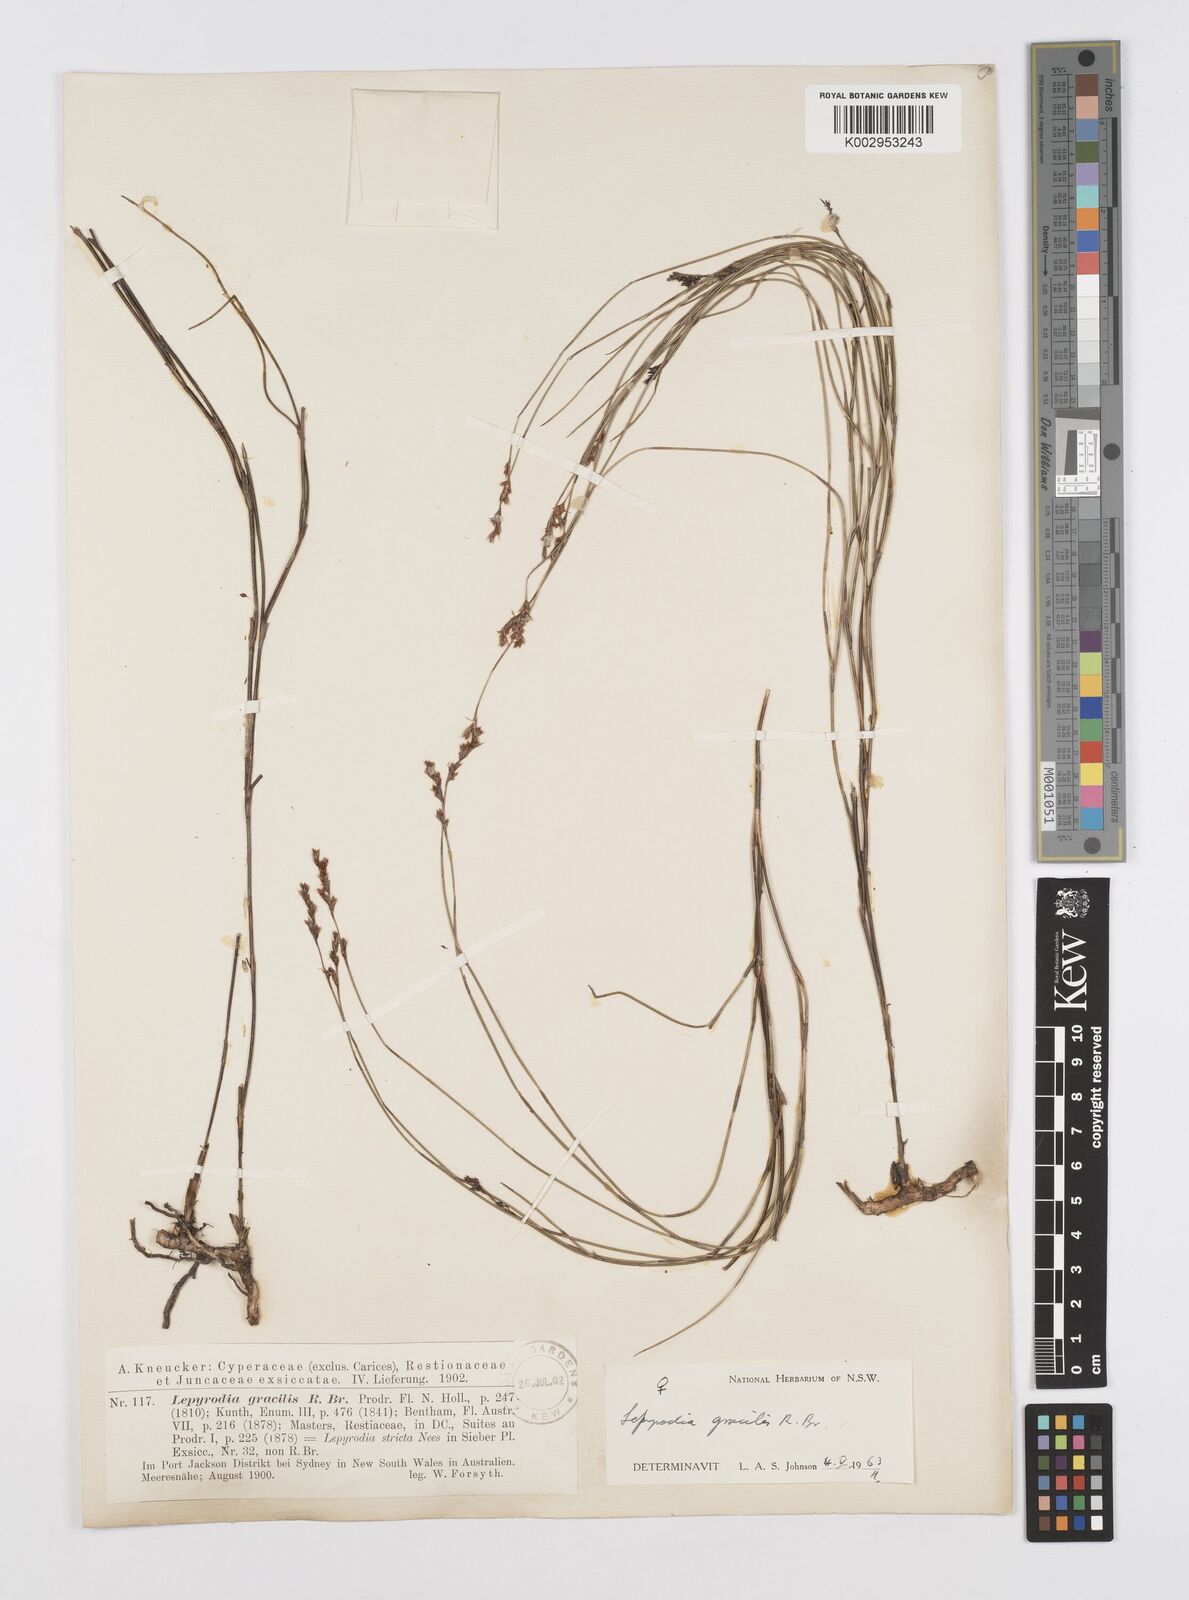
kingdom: Plantae
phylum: Tracheophyta
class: Liliopsida
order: Poales
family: Restionaceae
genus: Sporadanthus
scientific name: Sporadanthus gracilis
